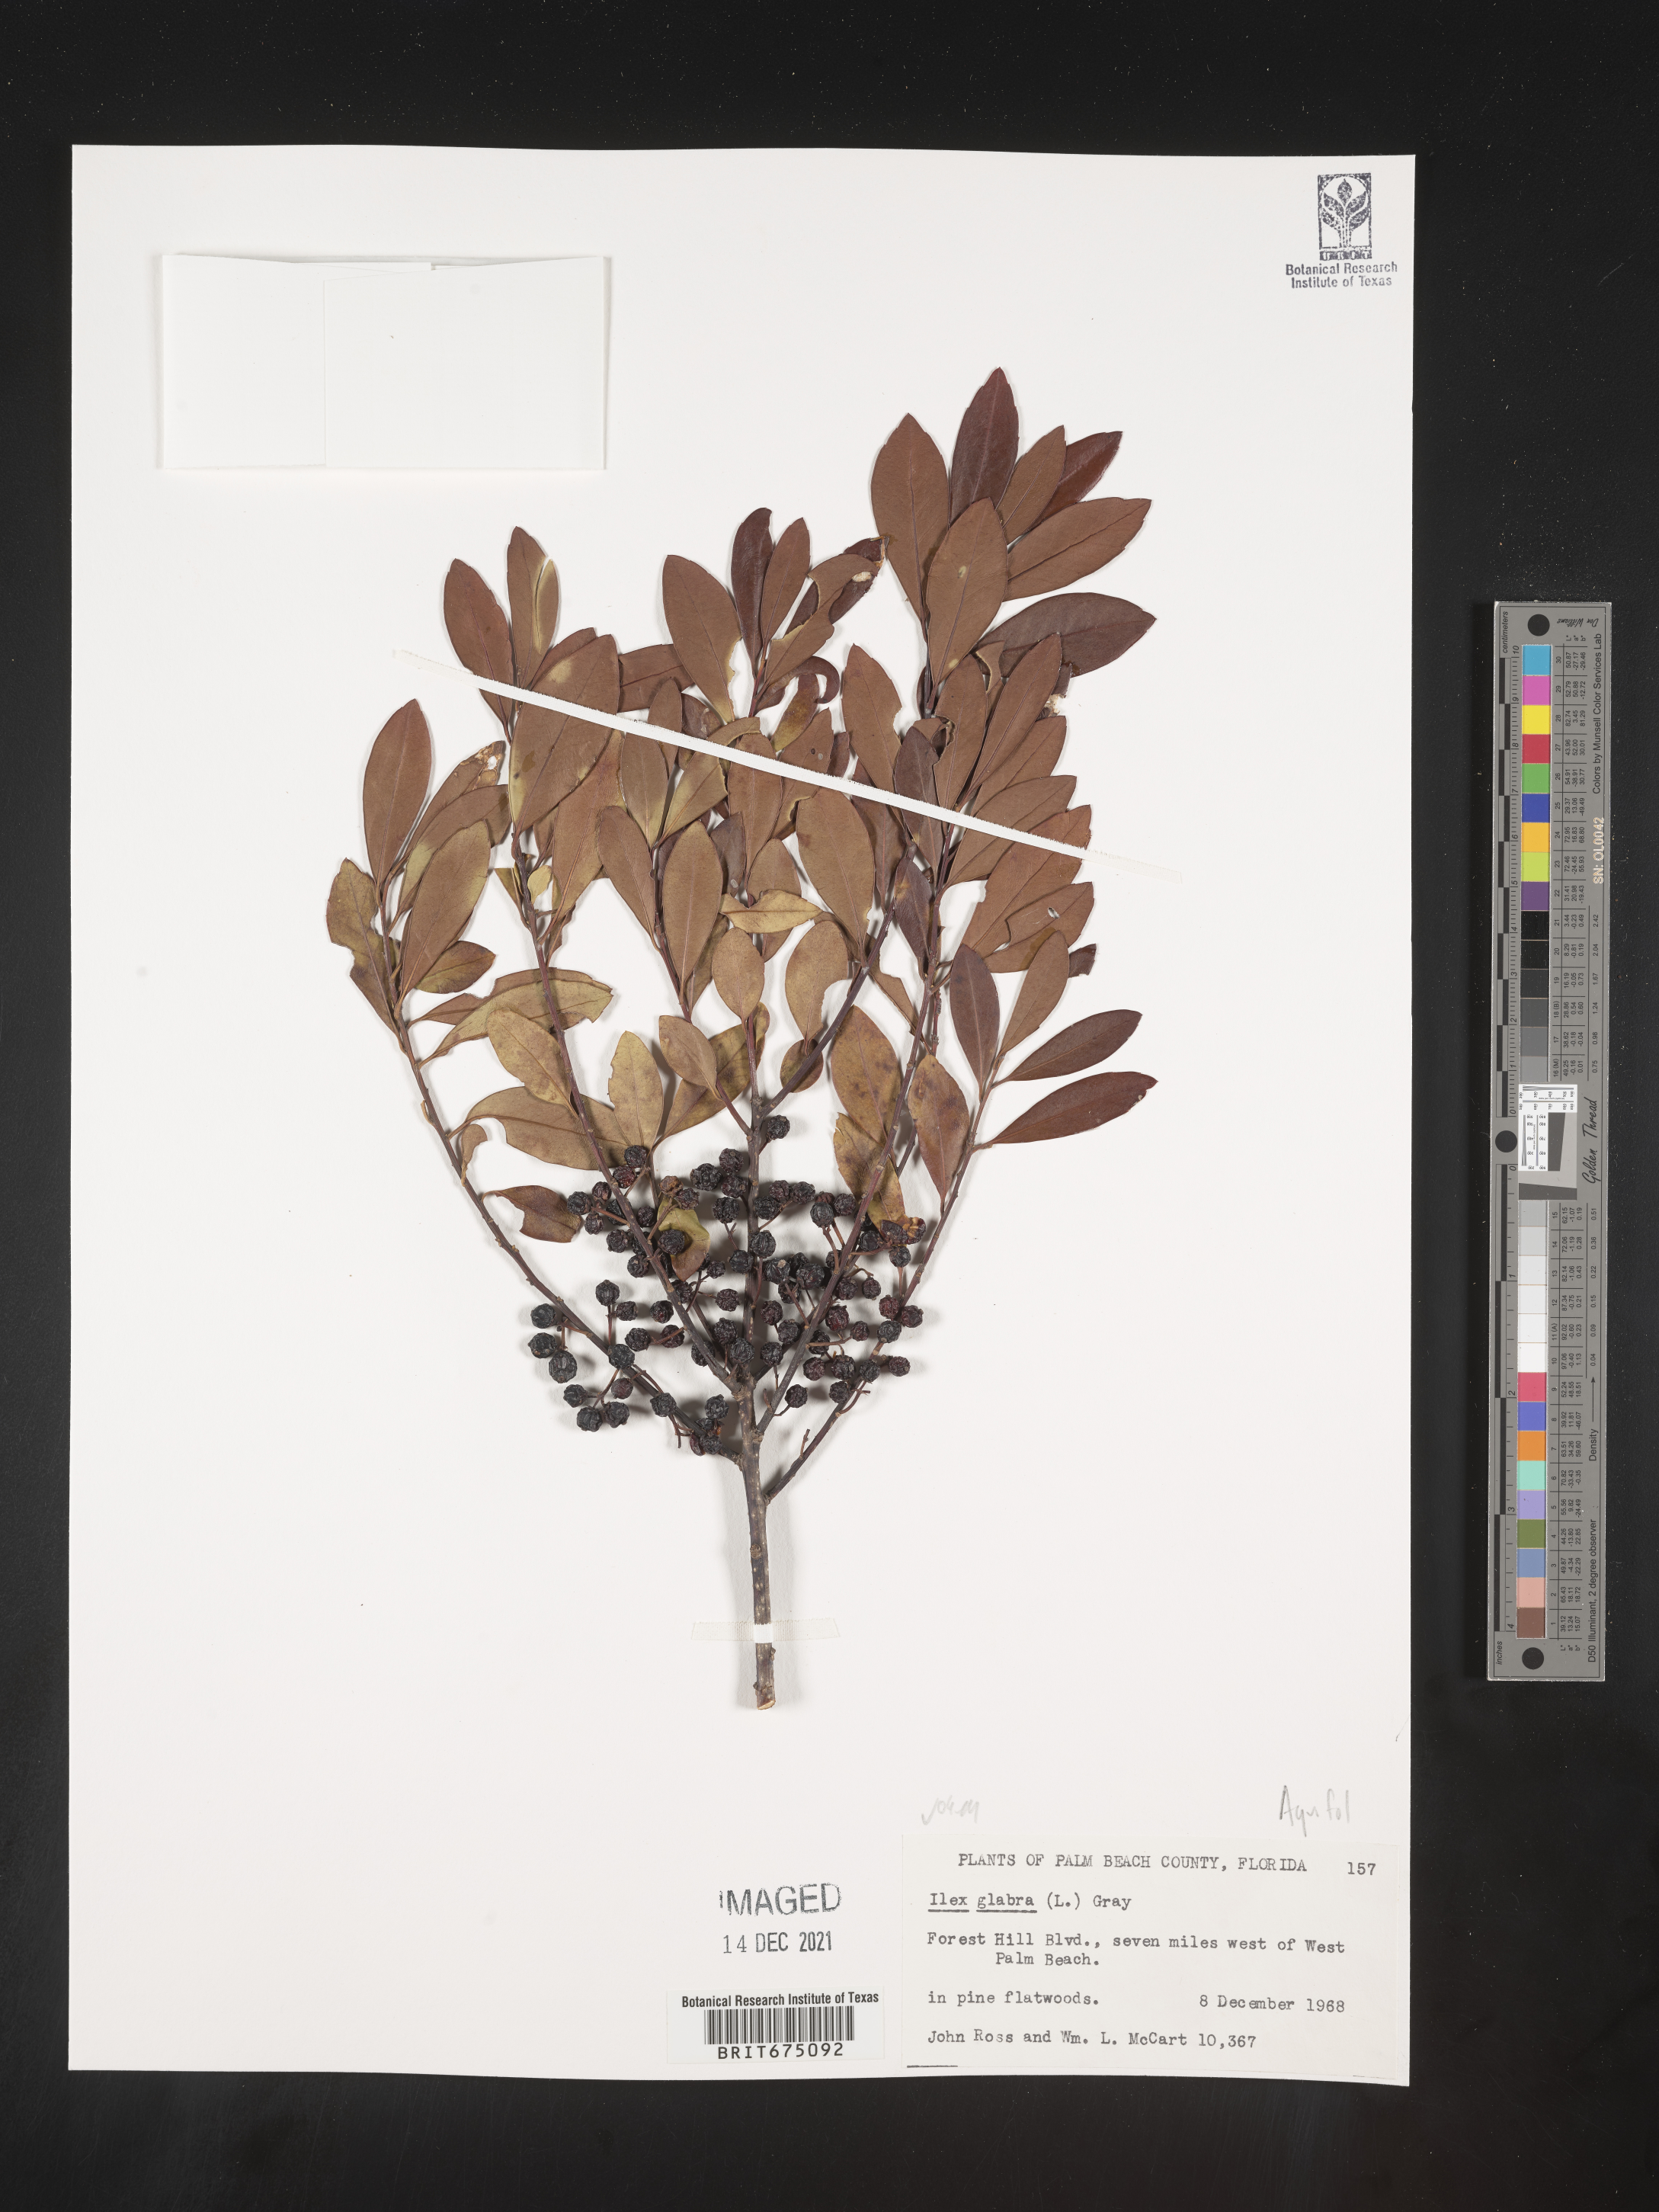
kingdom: Plantae
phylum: Tracheophyta
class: Magnoliopsida
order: Aquifoliales
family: Aquifoliaceae
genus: Ilex
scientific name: Ilex glabra
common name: Bitter gallberry
